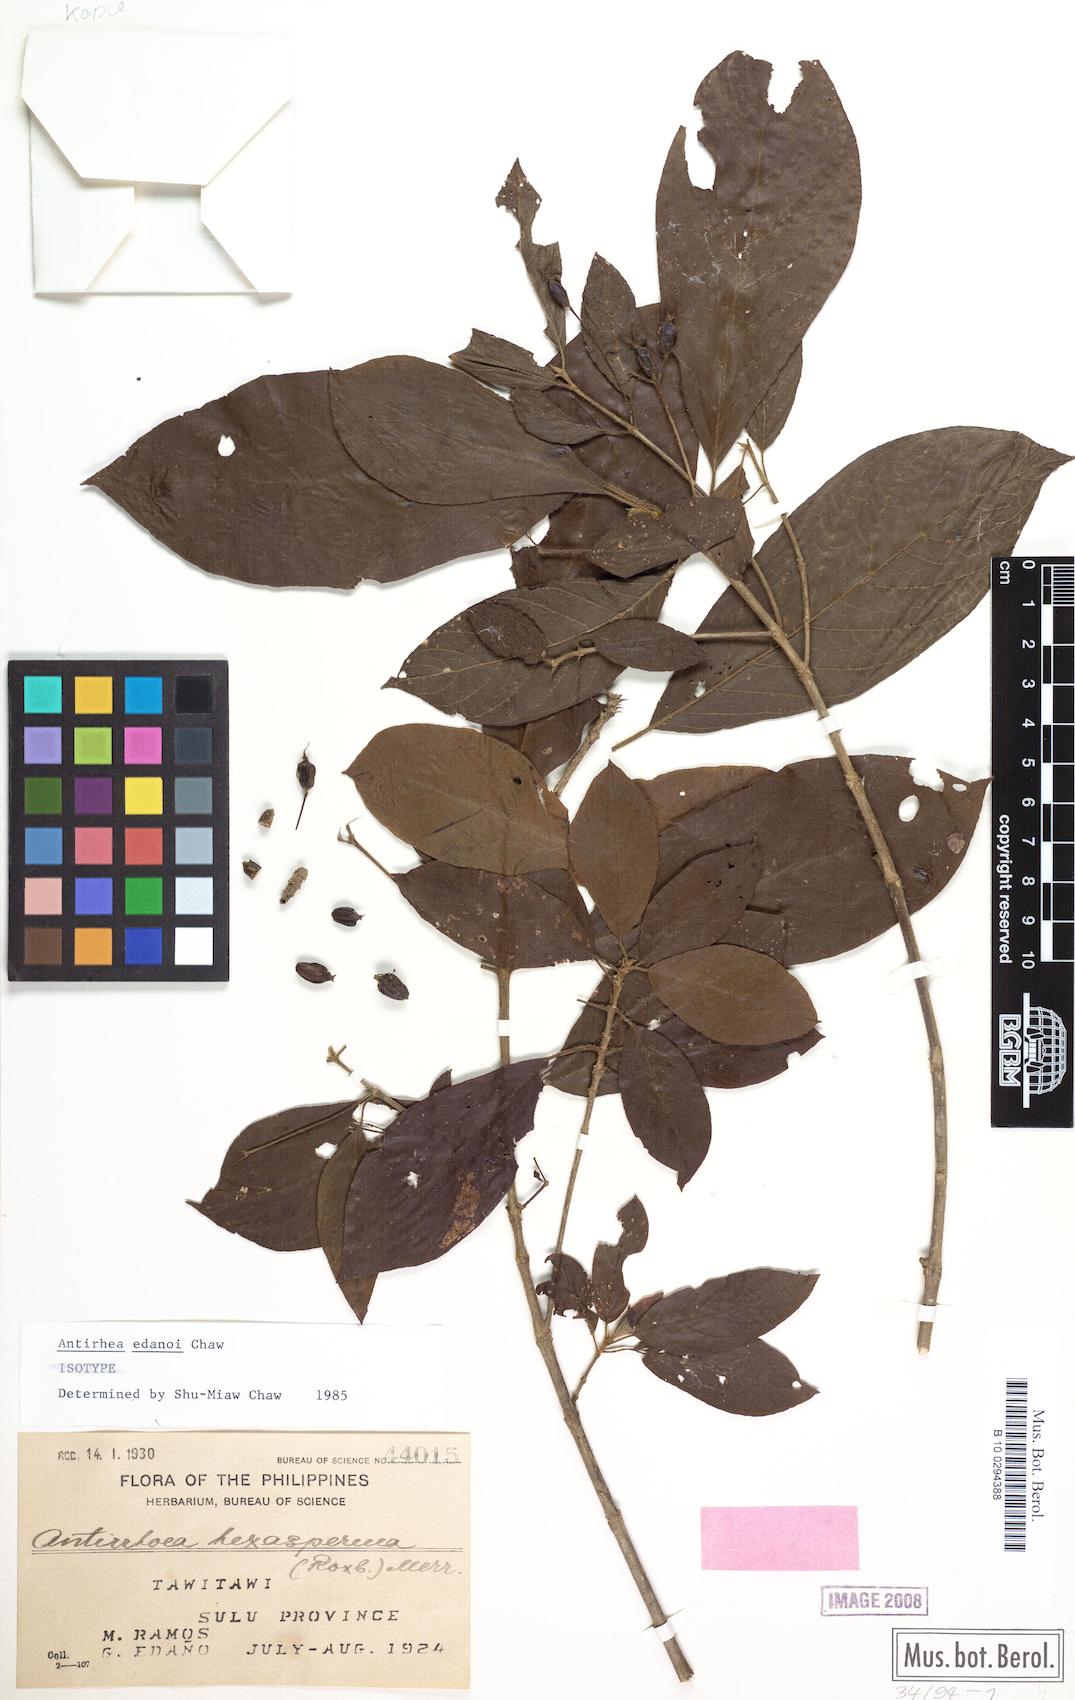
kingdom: Plantae
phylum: Tracheophyta
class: Magnoliopsida
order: Gentianales
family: Rubiaceae
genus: Guettardella
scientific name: Guettardella edanoi
